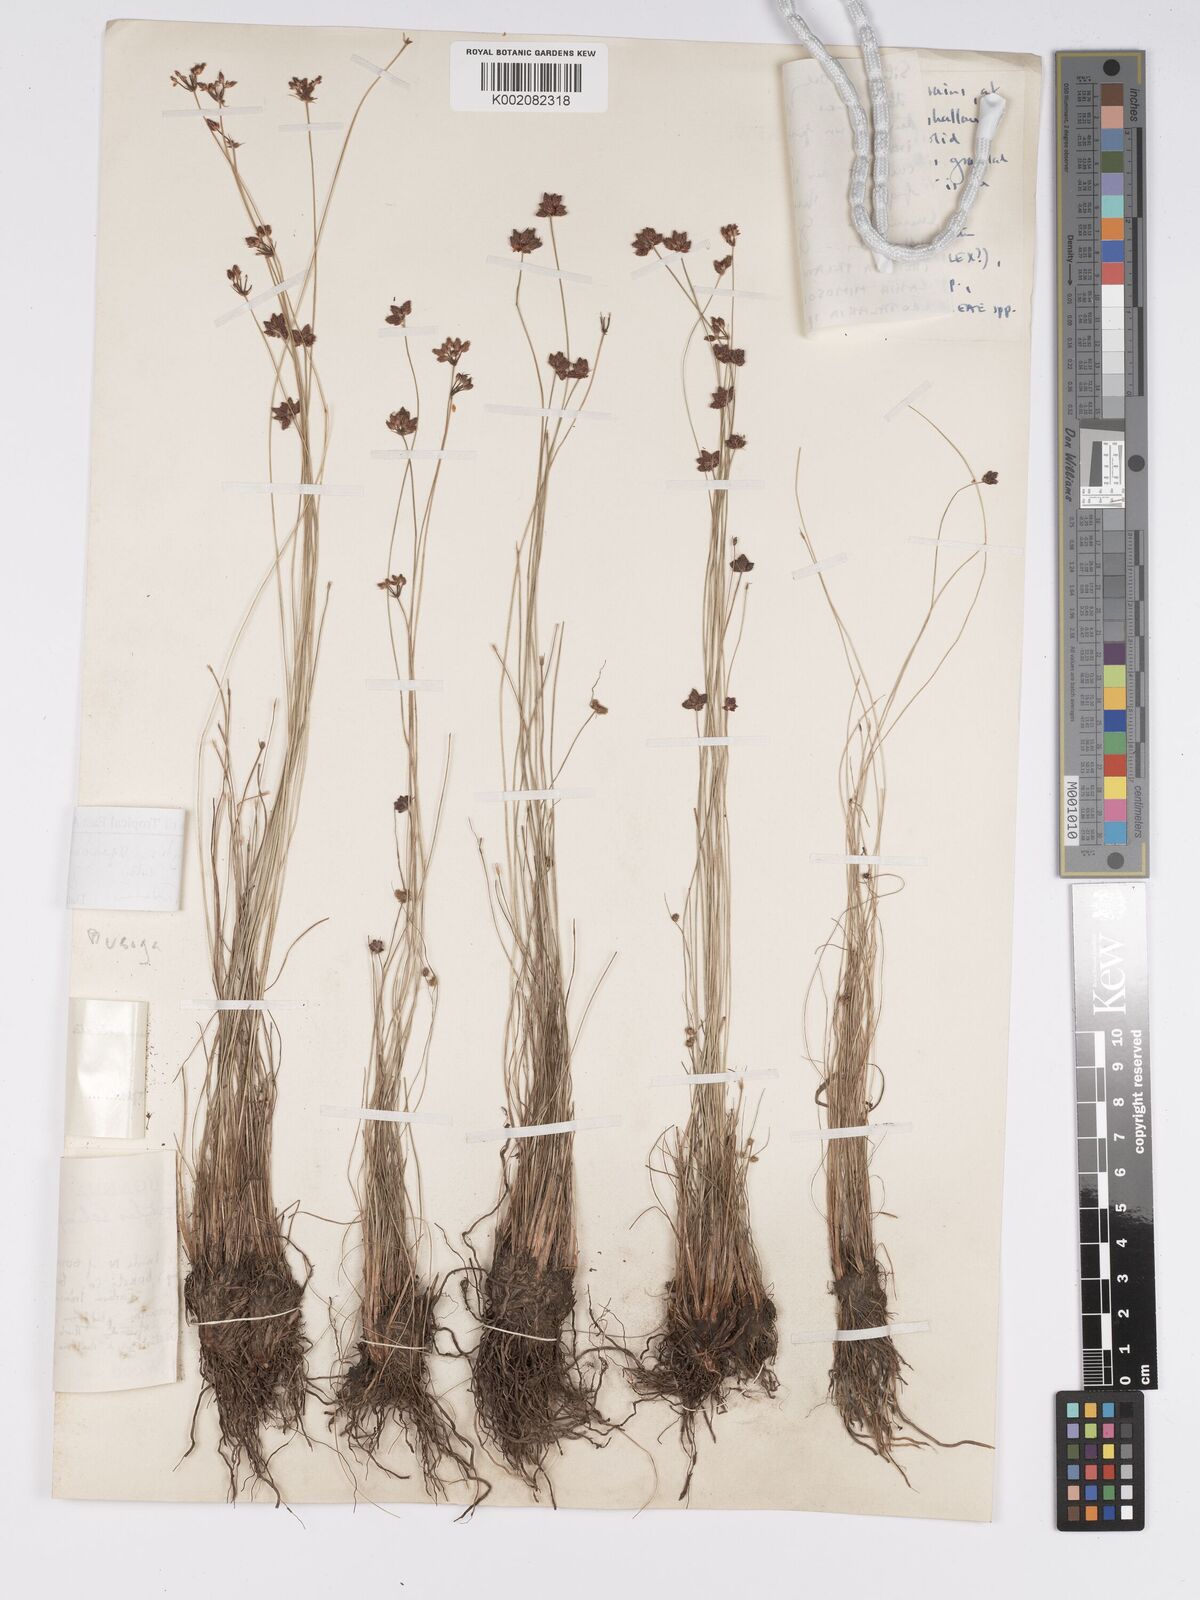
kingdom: Plantae
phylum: Tracheophyta
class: Liliopsida
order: Poales
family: Cyperaceae
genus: Bulbostylis
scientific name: Bulbostylis ugandensis
